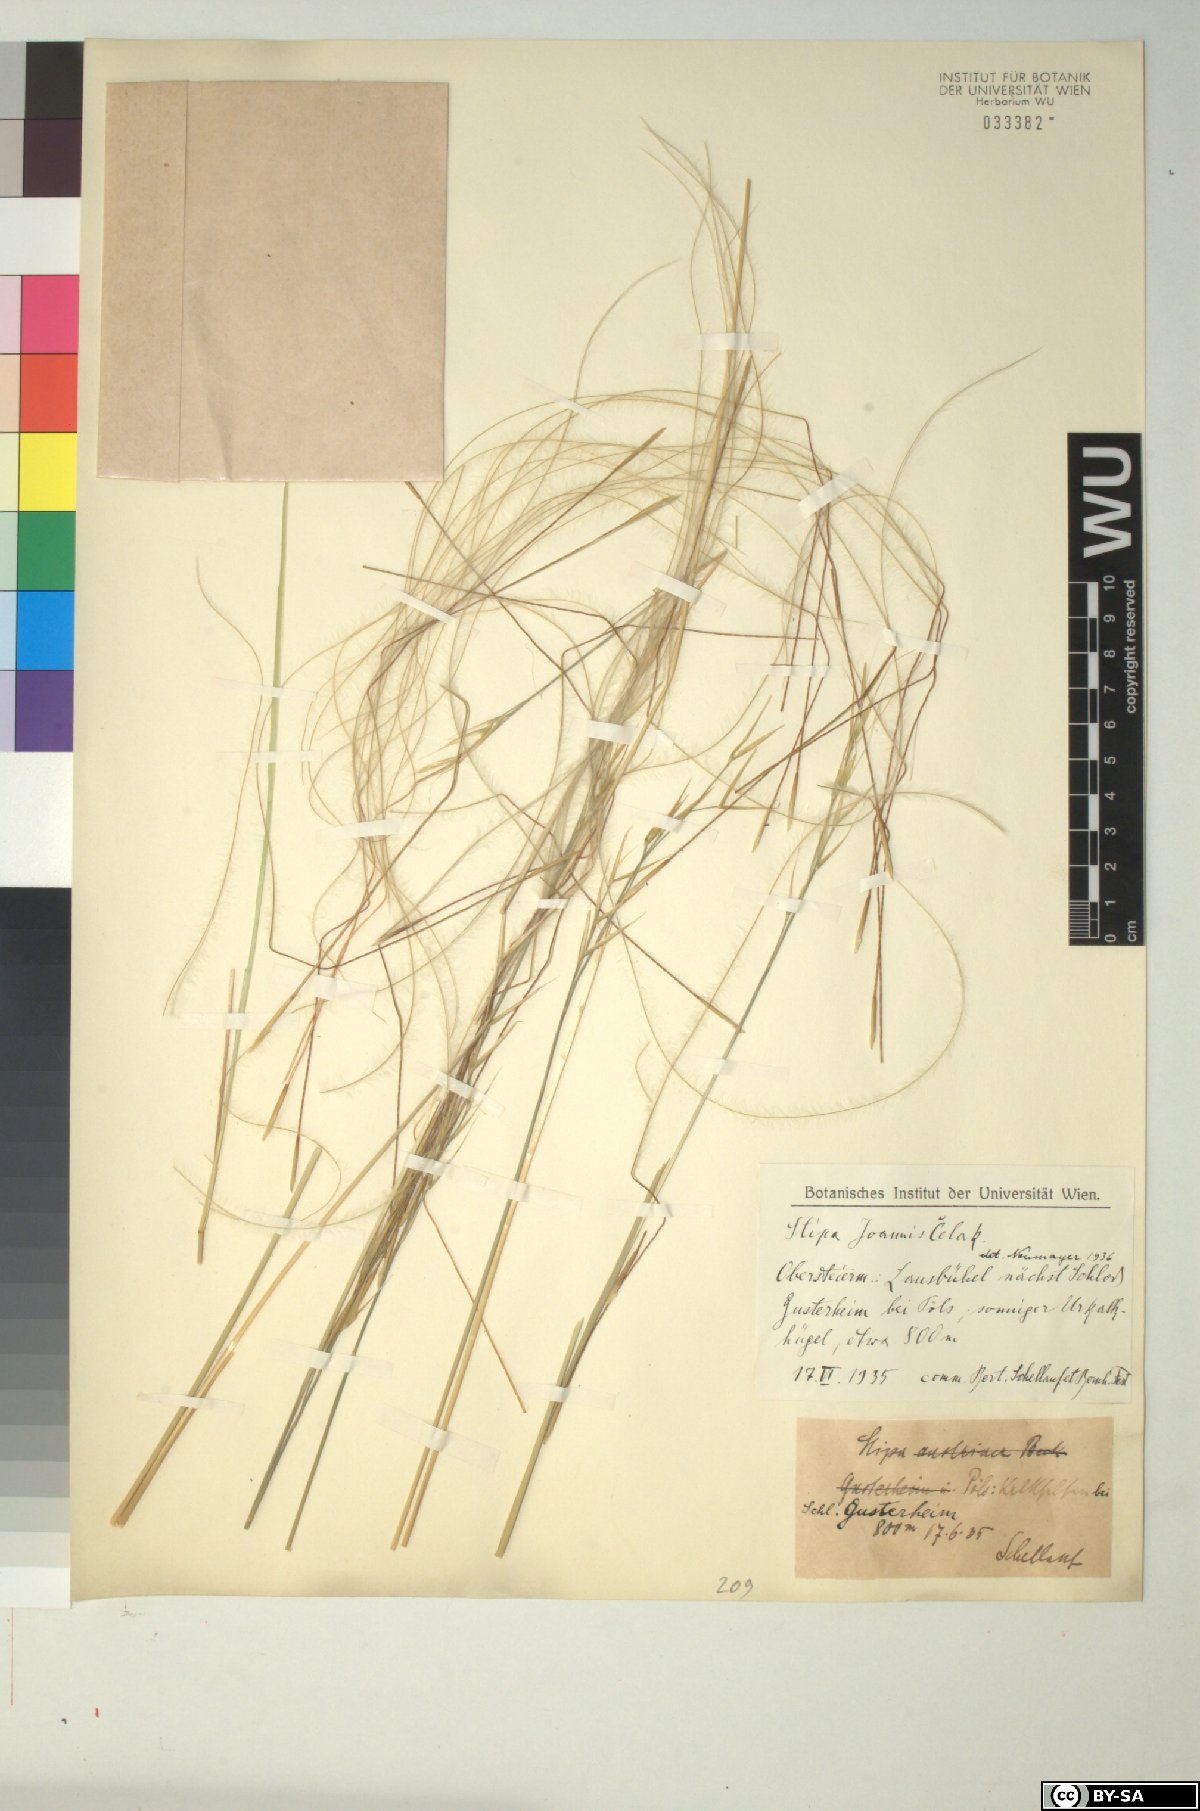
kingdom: Plantae
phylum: Tracheophyta
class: Liliopsida
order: Poales
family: Poaceae
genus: Stipa
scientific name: Stipa pennata
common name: European feather grass
